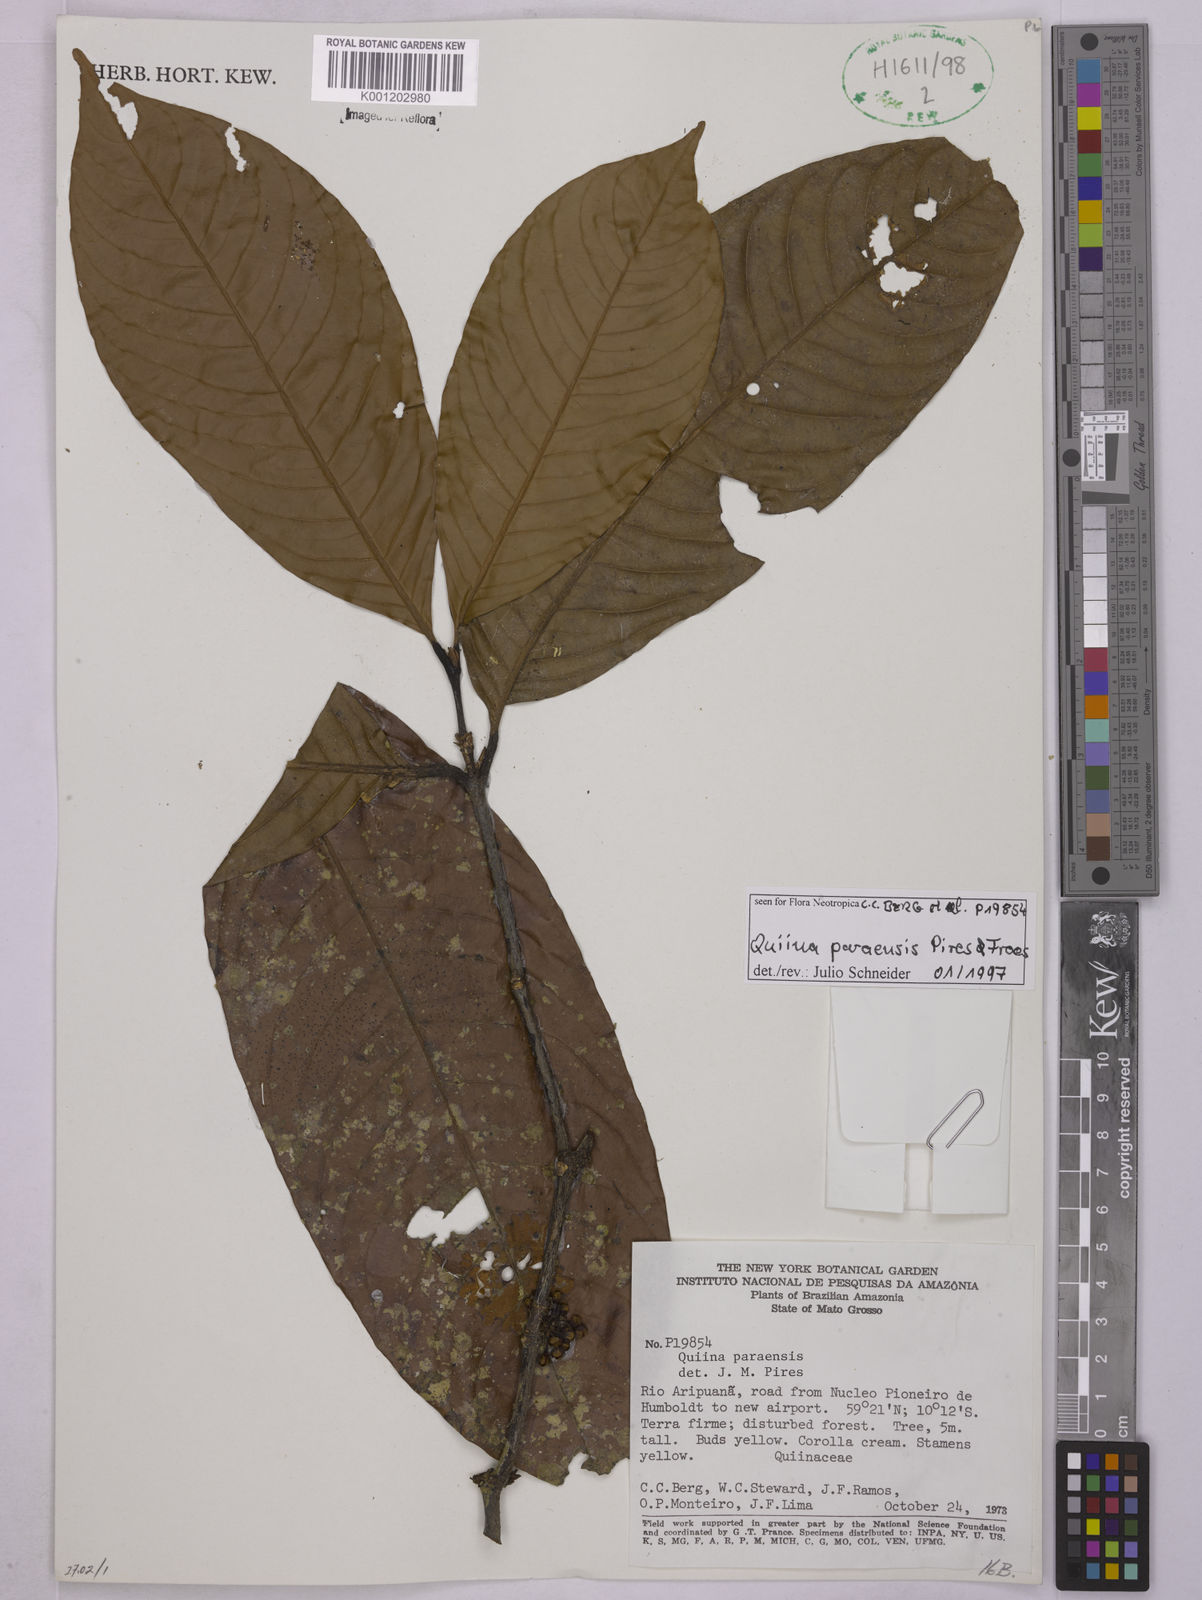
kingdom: Plantae
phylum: Tracheophyta
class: Magnoliopsida
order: Malpighiales
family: Quiinaceae
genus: Quiina
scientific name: Quiina paraensis
